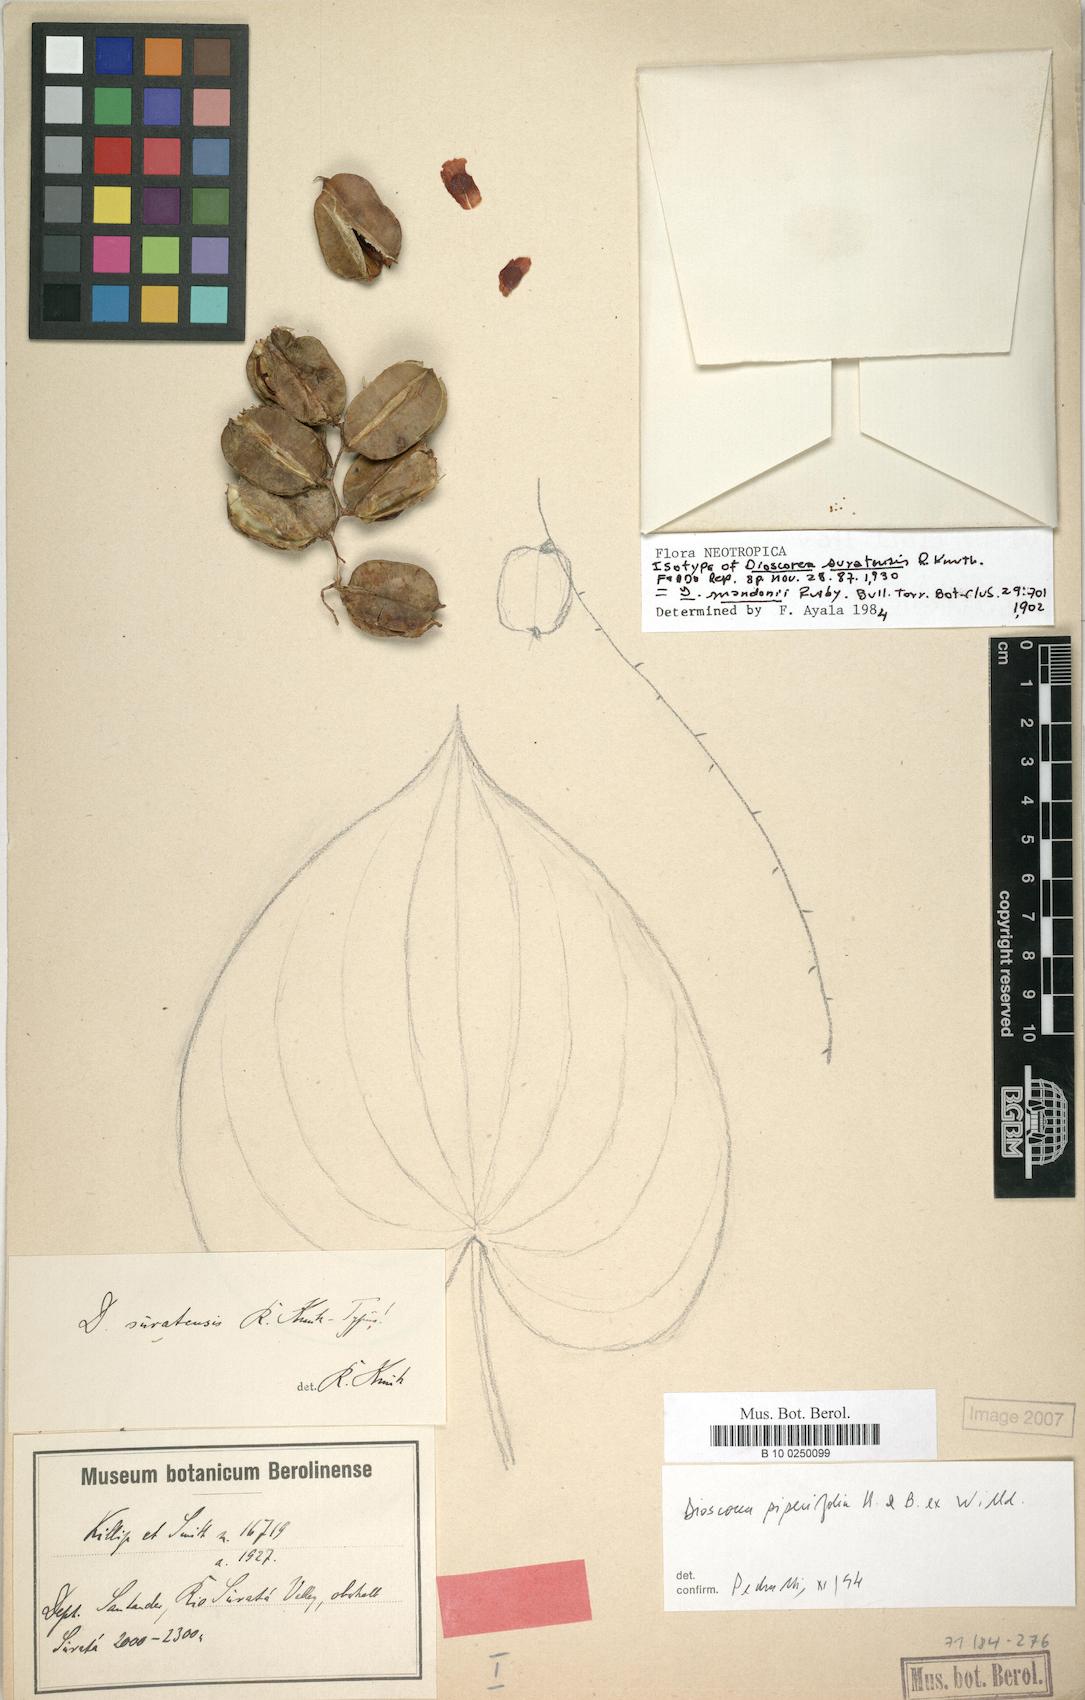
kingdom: Plantae
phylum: Tracheophyta
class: Liliopsida
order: Dioscoreales
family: Dioscoreaceae
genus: Dioscorea
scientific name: Dioscorea suratensis
